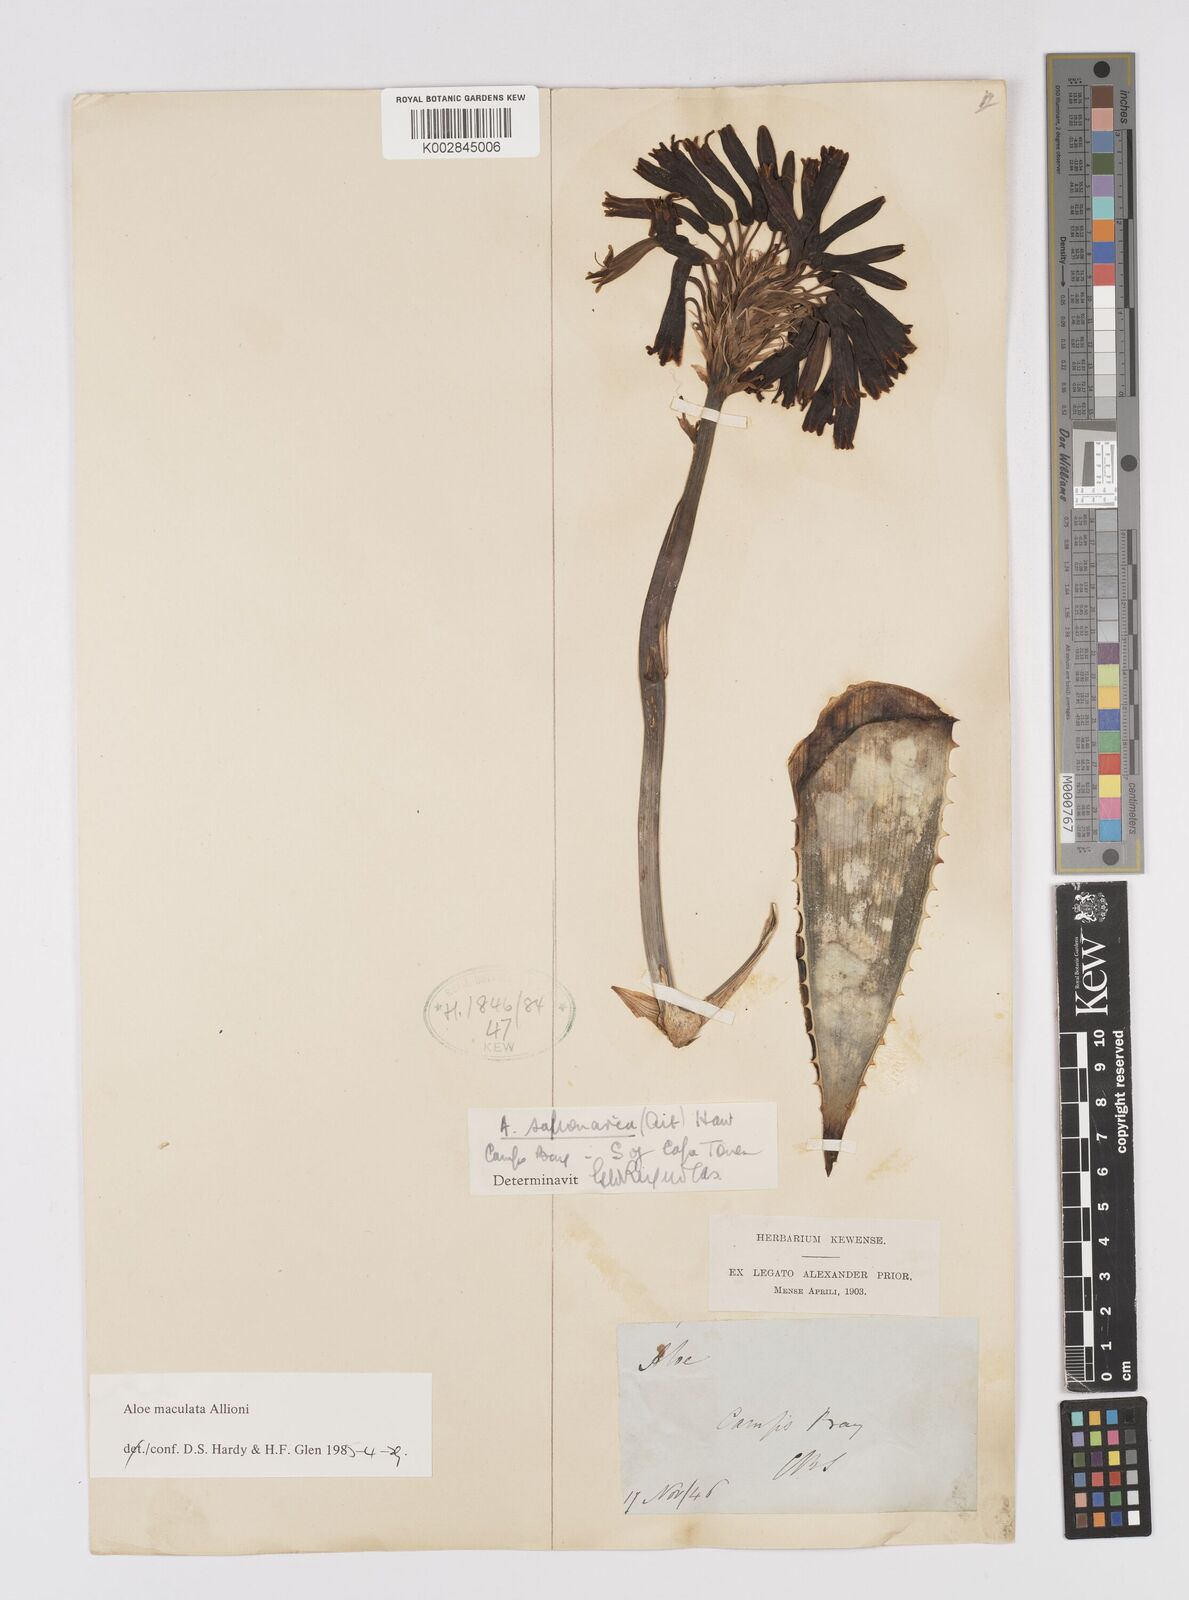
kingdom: Plantae
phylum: Tracheophyta
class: Liliopsida
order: Asparagales
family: Asphodelaceae
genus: Aloe
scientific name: Aloe microstigma
